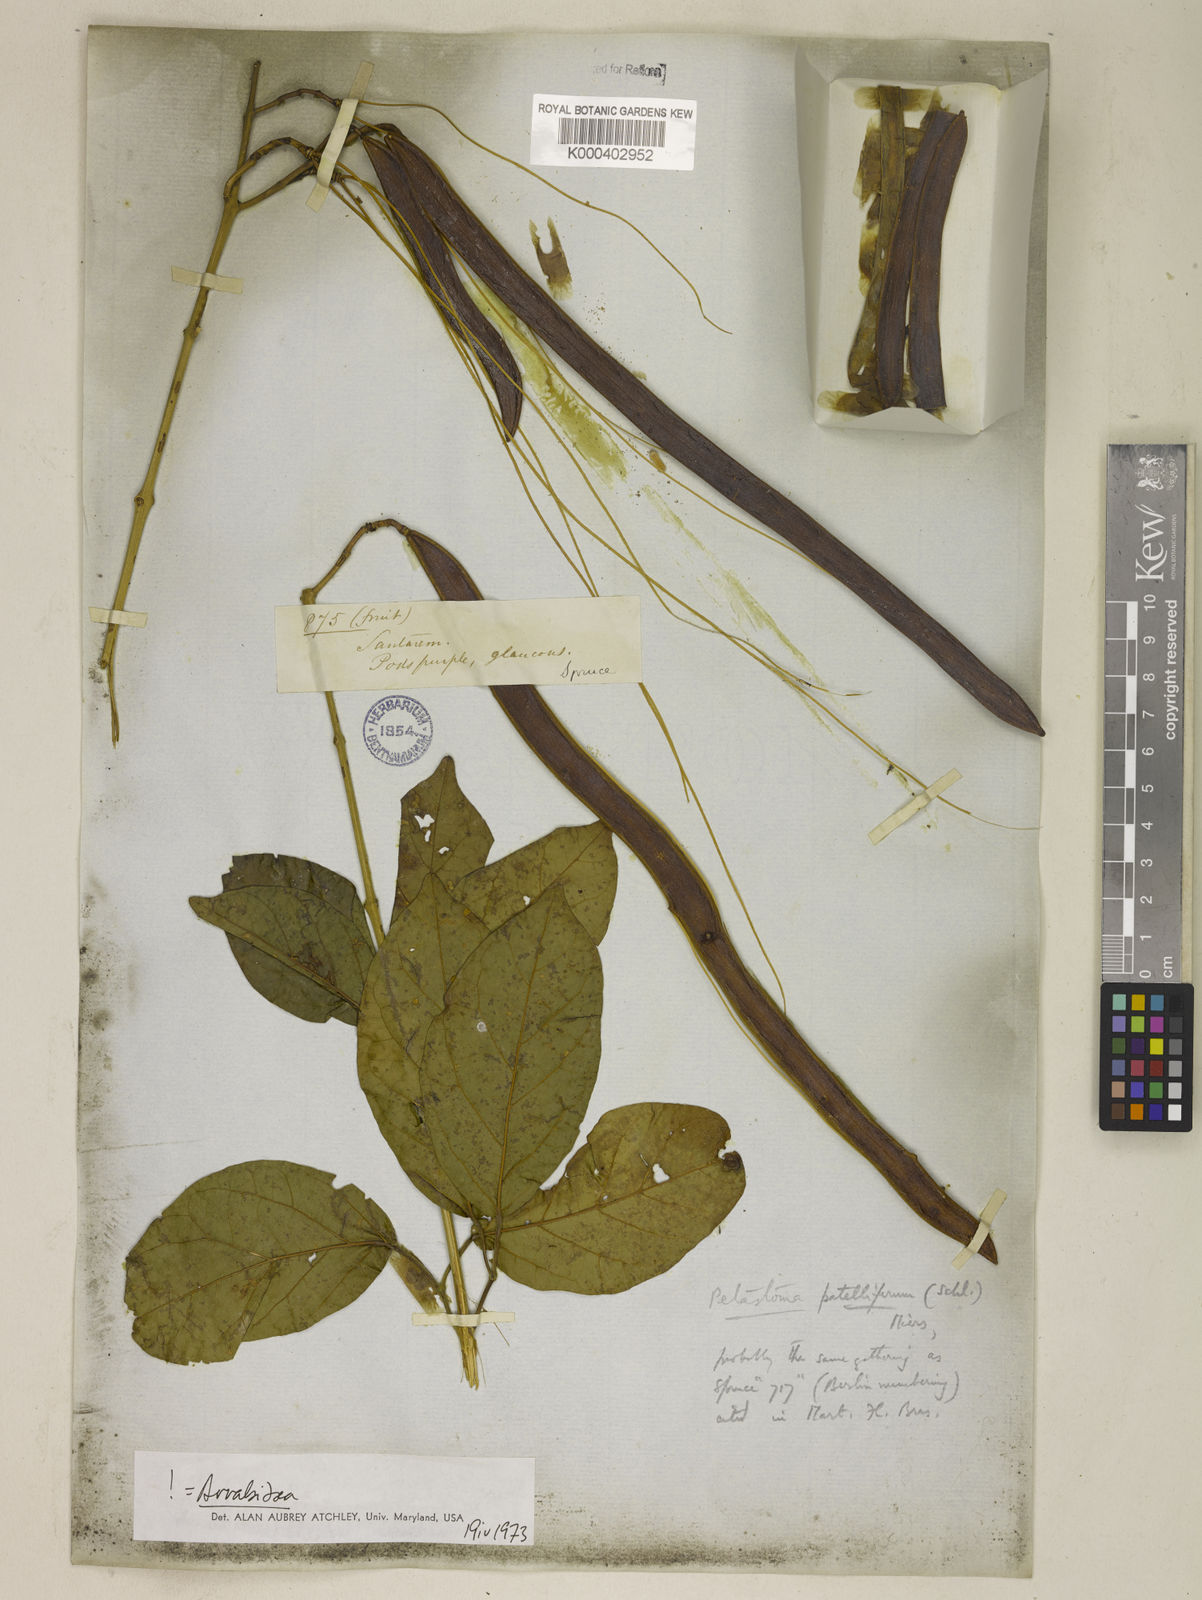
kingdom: Plantae
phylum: Tracheophyta
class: Magnoliopsida
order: Lamiales
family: Bignoniaceae
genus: Fridericia
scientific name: Fridericia patellifera
